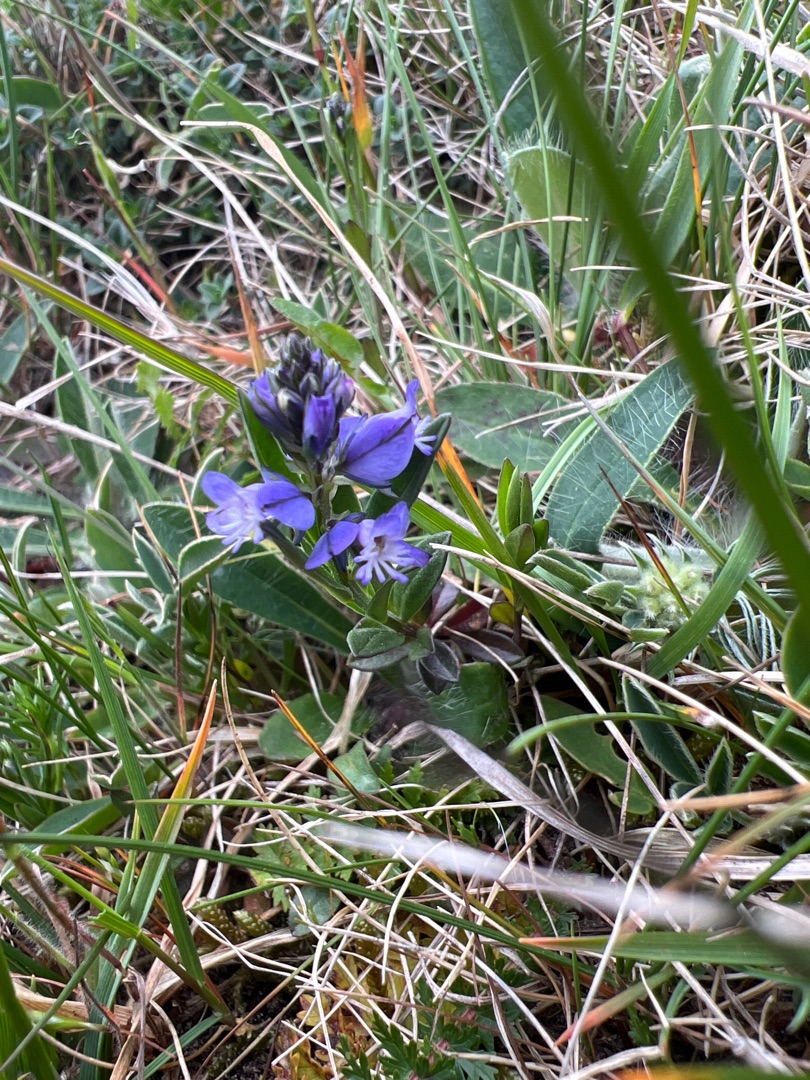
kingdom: Plantae
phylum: Tracheophyta
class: Magnoliopsida
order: Fabales
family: Polygalaceae
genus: Polygala
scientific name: Polygala vulgaris
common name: Almindelig mælkeurt
